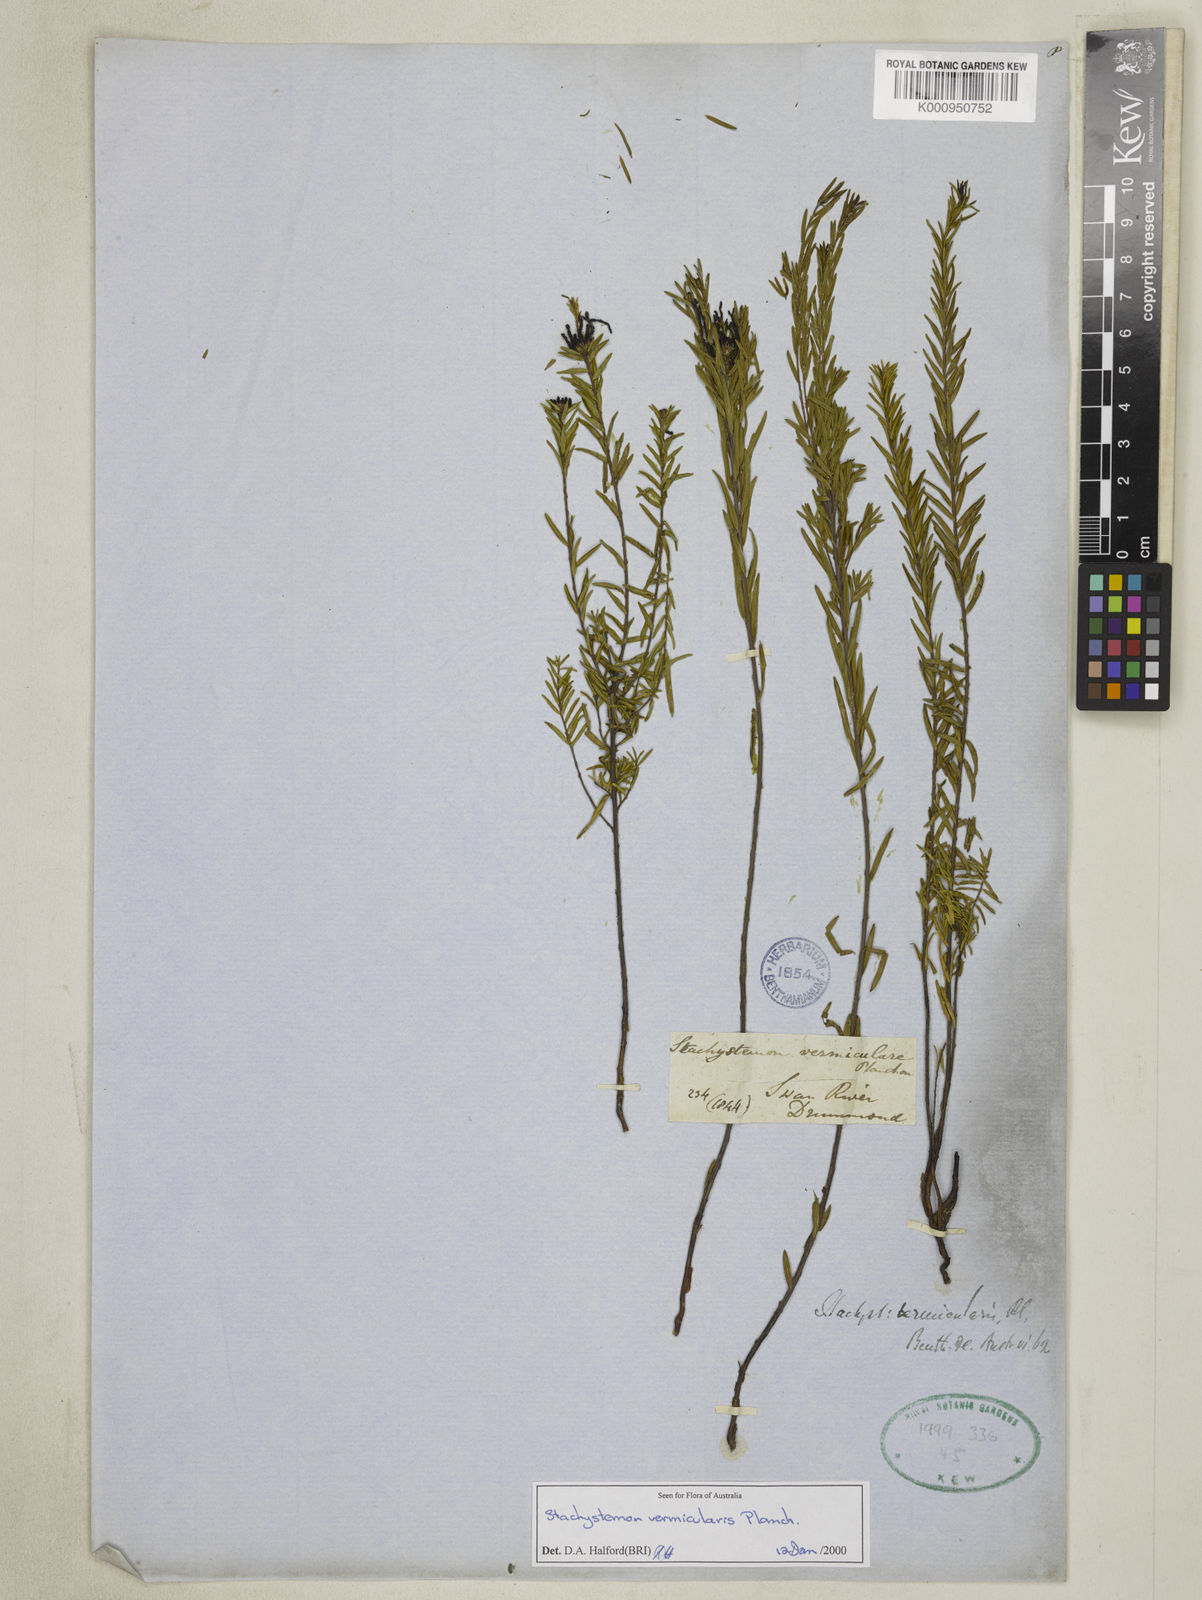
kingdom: Plantae
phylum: Tracheophyta
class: Magnoliopsida
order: Malpighiales
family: Picrodendraceae
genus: Stachystemon
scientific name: Stachystemon vermicularis
